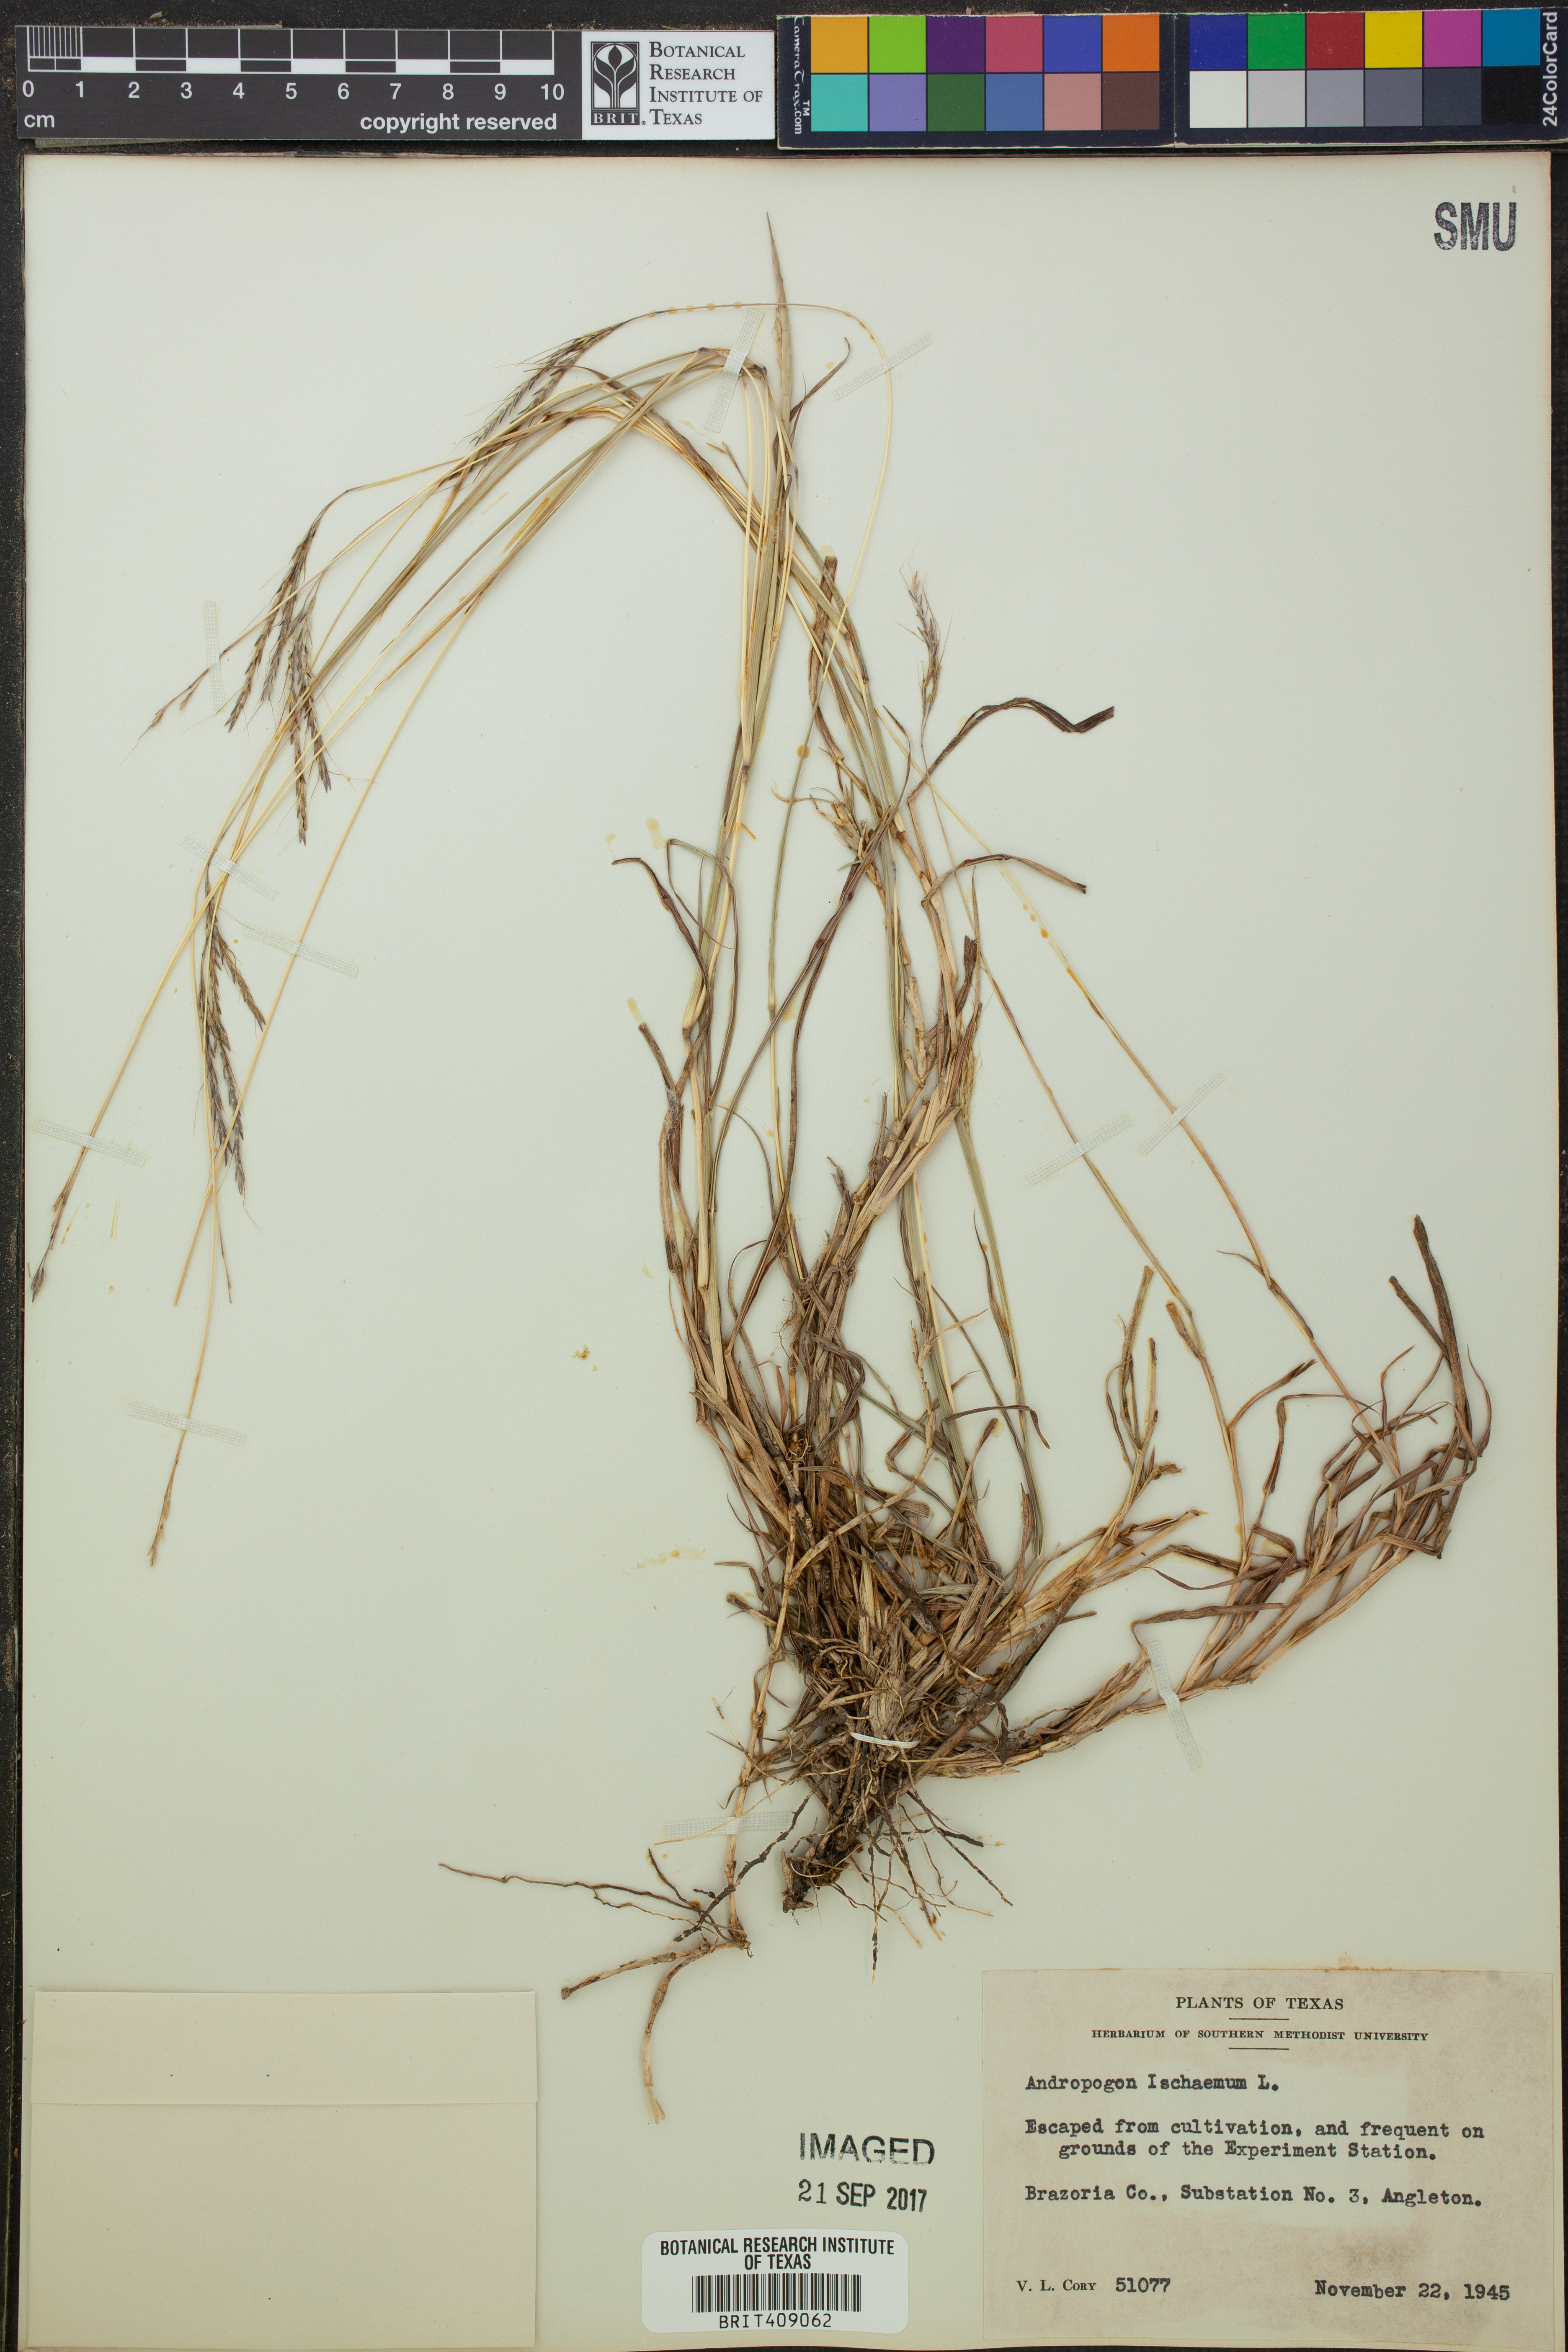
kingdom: Plantae
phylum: Tracheophyta
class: Liliopsida
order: Poales
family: Poaceae
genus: Andropogon
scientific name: Andropogon ischaemum
